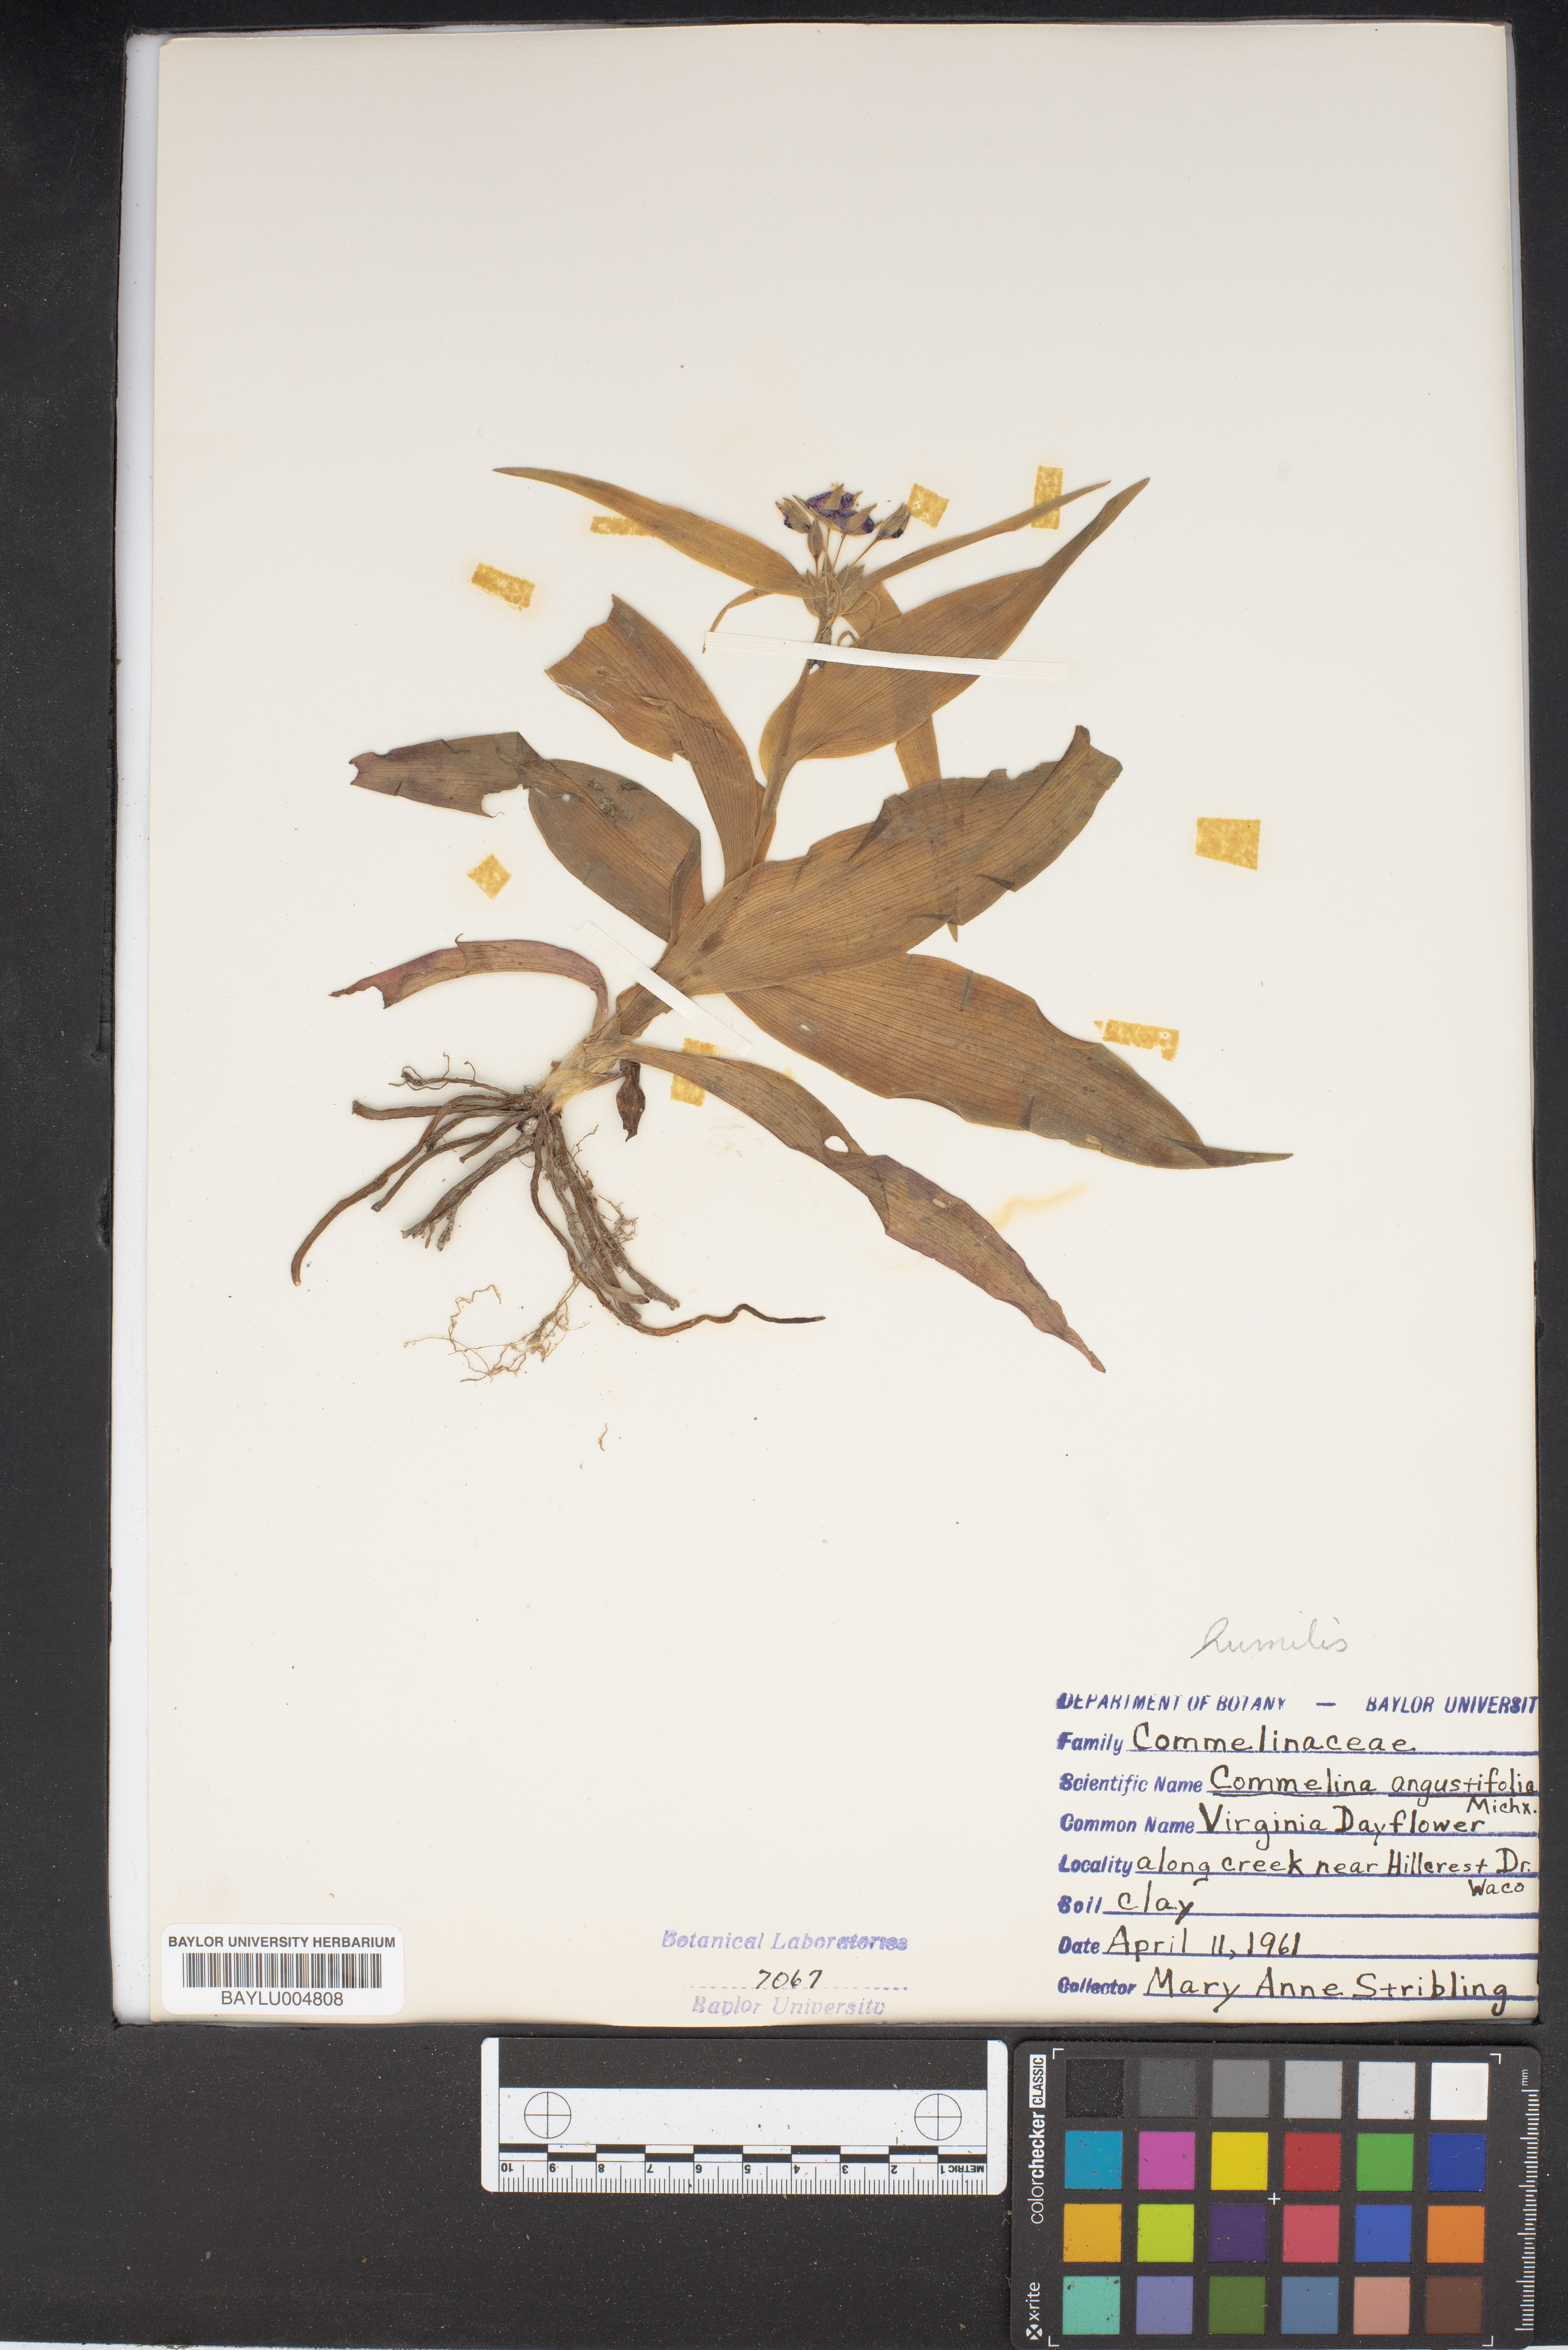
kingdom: Plantae
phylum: Tracheophyta
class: Liliopsida
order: Commelinales
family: Commelinaceae
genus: Commelina
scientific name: Commelina erecta
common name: Blousel blommetjie
